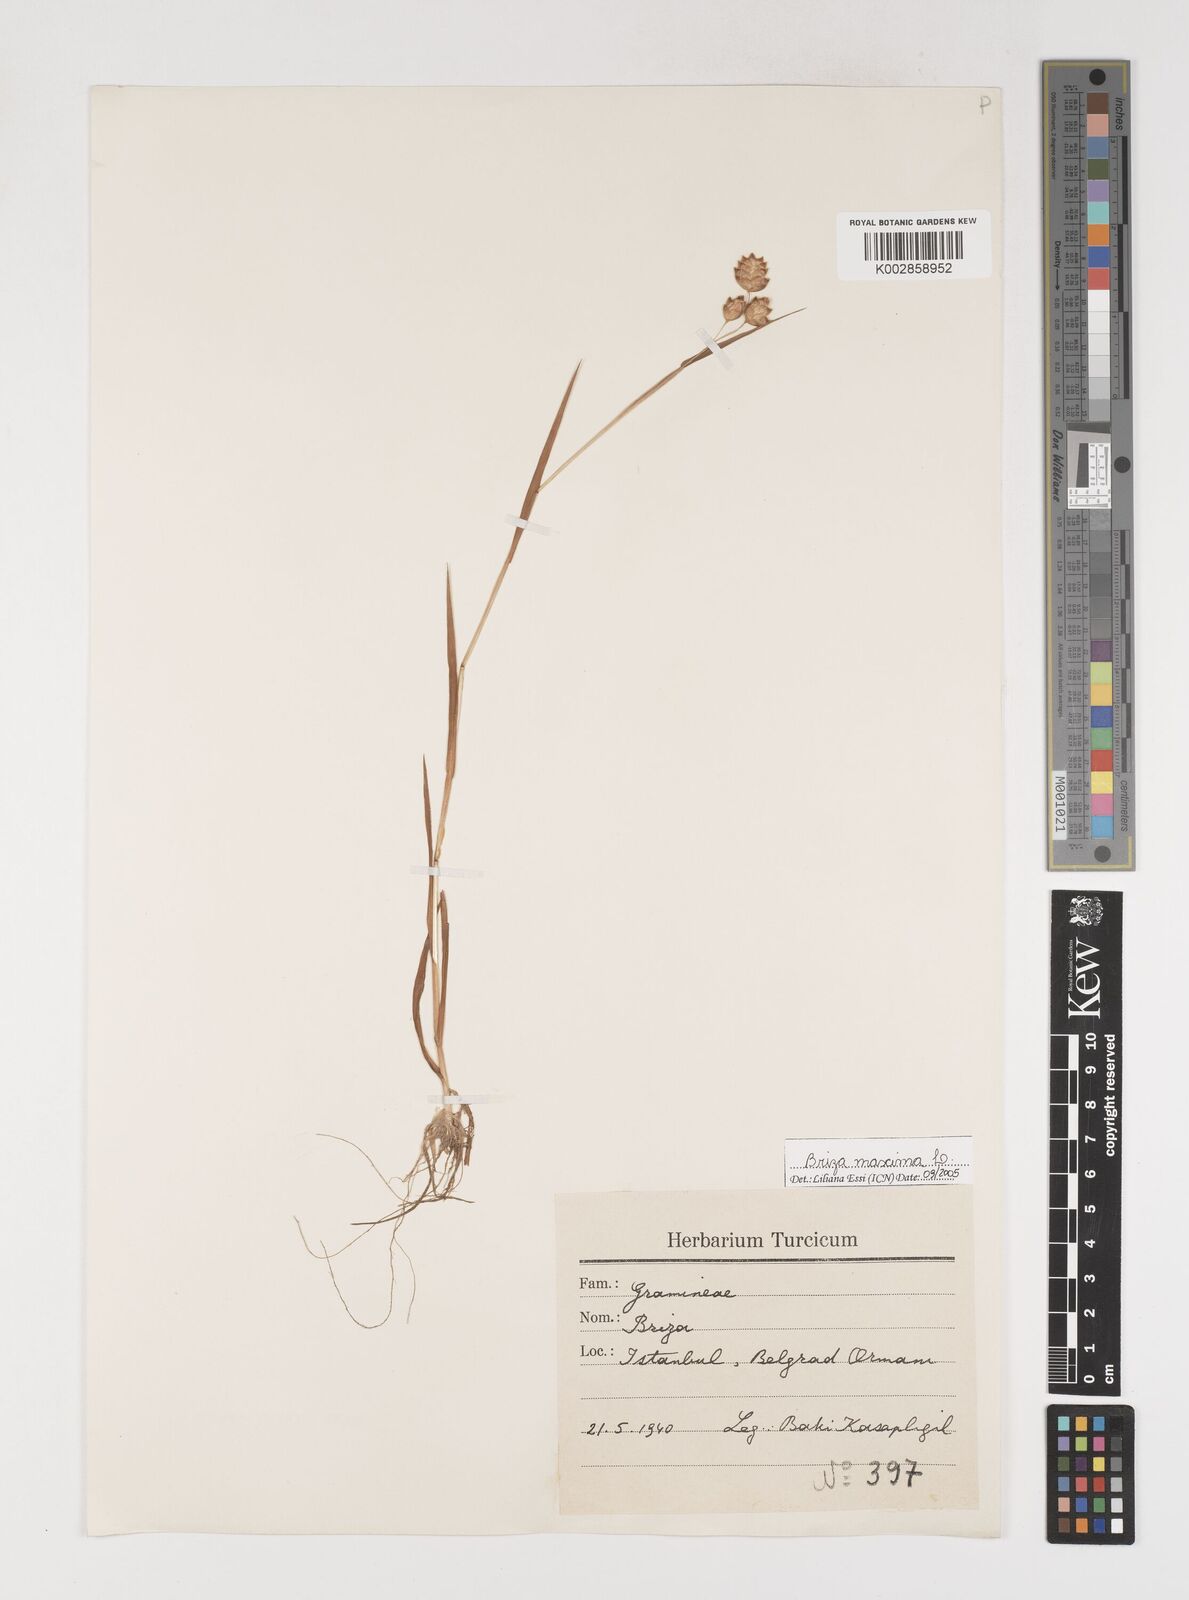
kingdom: Plantae
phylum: Tracheophyta
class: Liliopsida
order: Poales
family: Poaceae
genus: Briza
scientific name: Briza maxima
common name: Big quakinggrass
